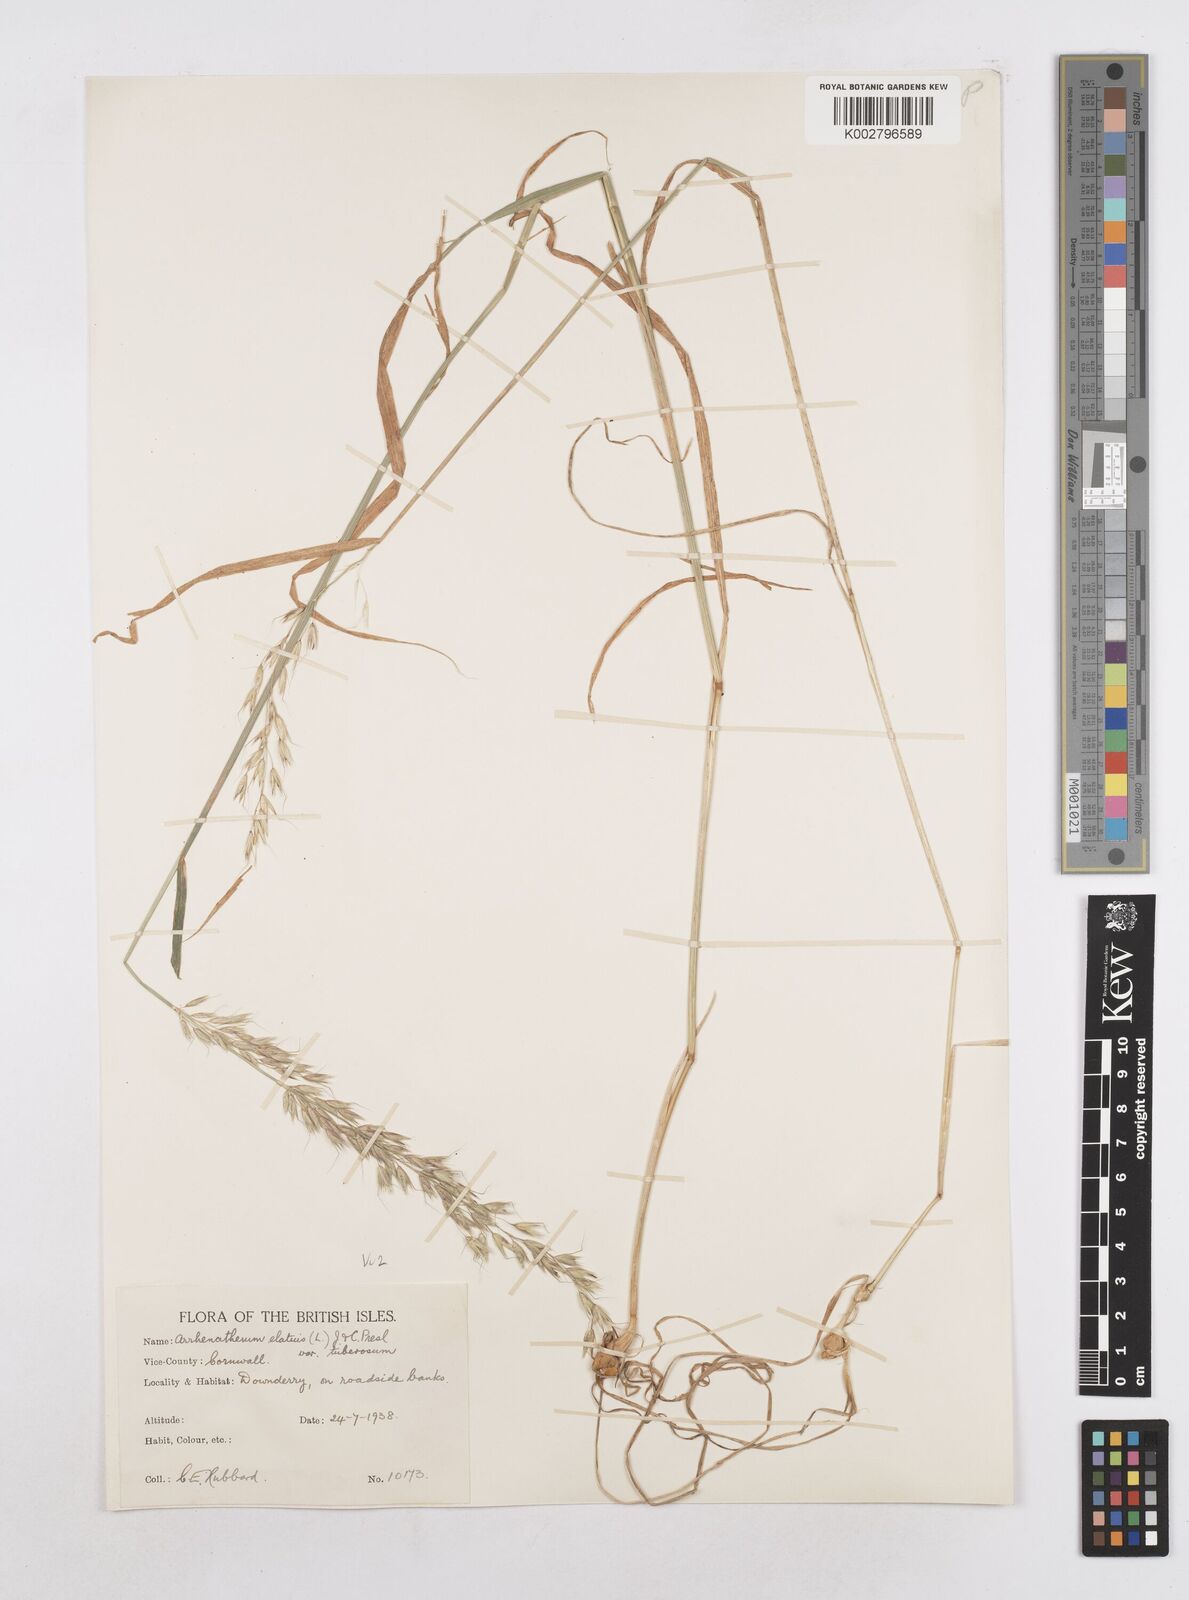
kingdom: Plantae
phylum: Tracheophyta
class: Liliopsida
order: Poales
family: Poaceae
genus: Arrhenatherum
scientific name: Arrhenatherum elatius
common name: Tall oatgrass
